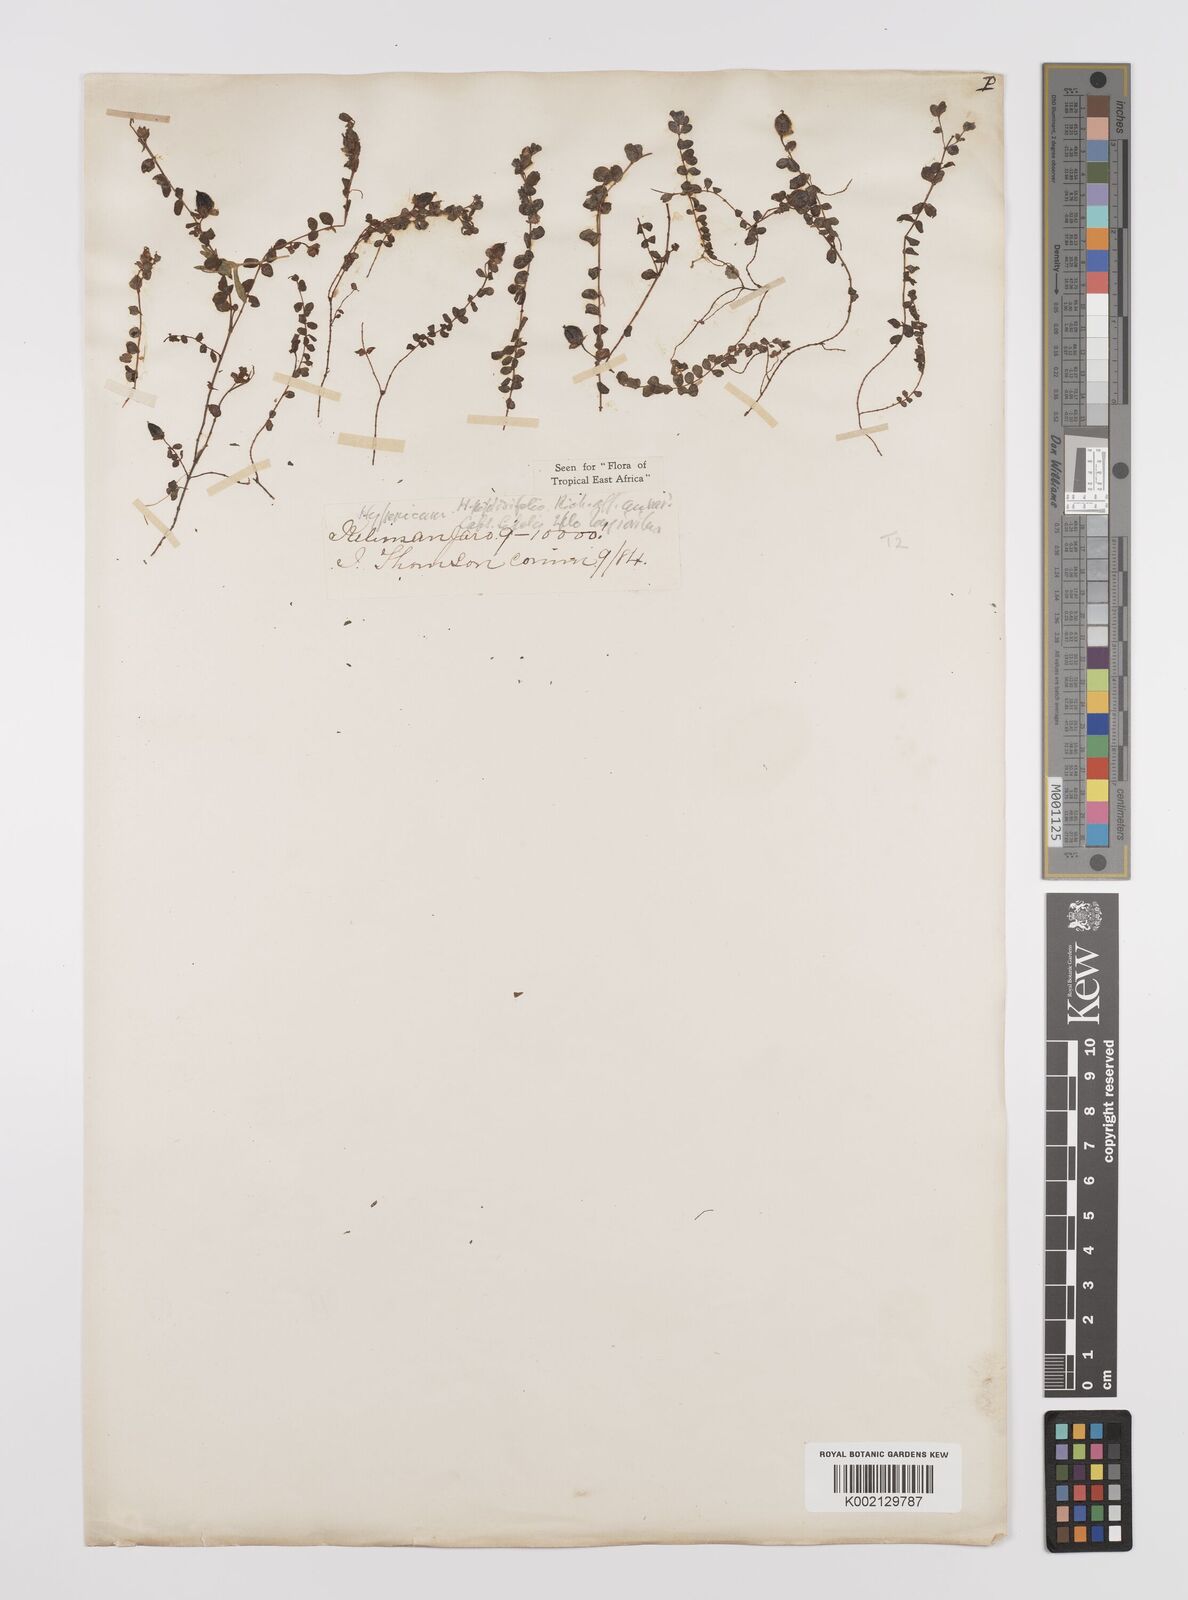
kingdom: Plantae
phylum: Tracheophyta
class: Magnoliopsida
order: Malpighiales
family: Hypericaceae
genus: Hypericum
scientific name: Hypericum peplidifolium
